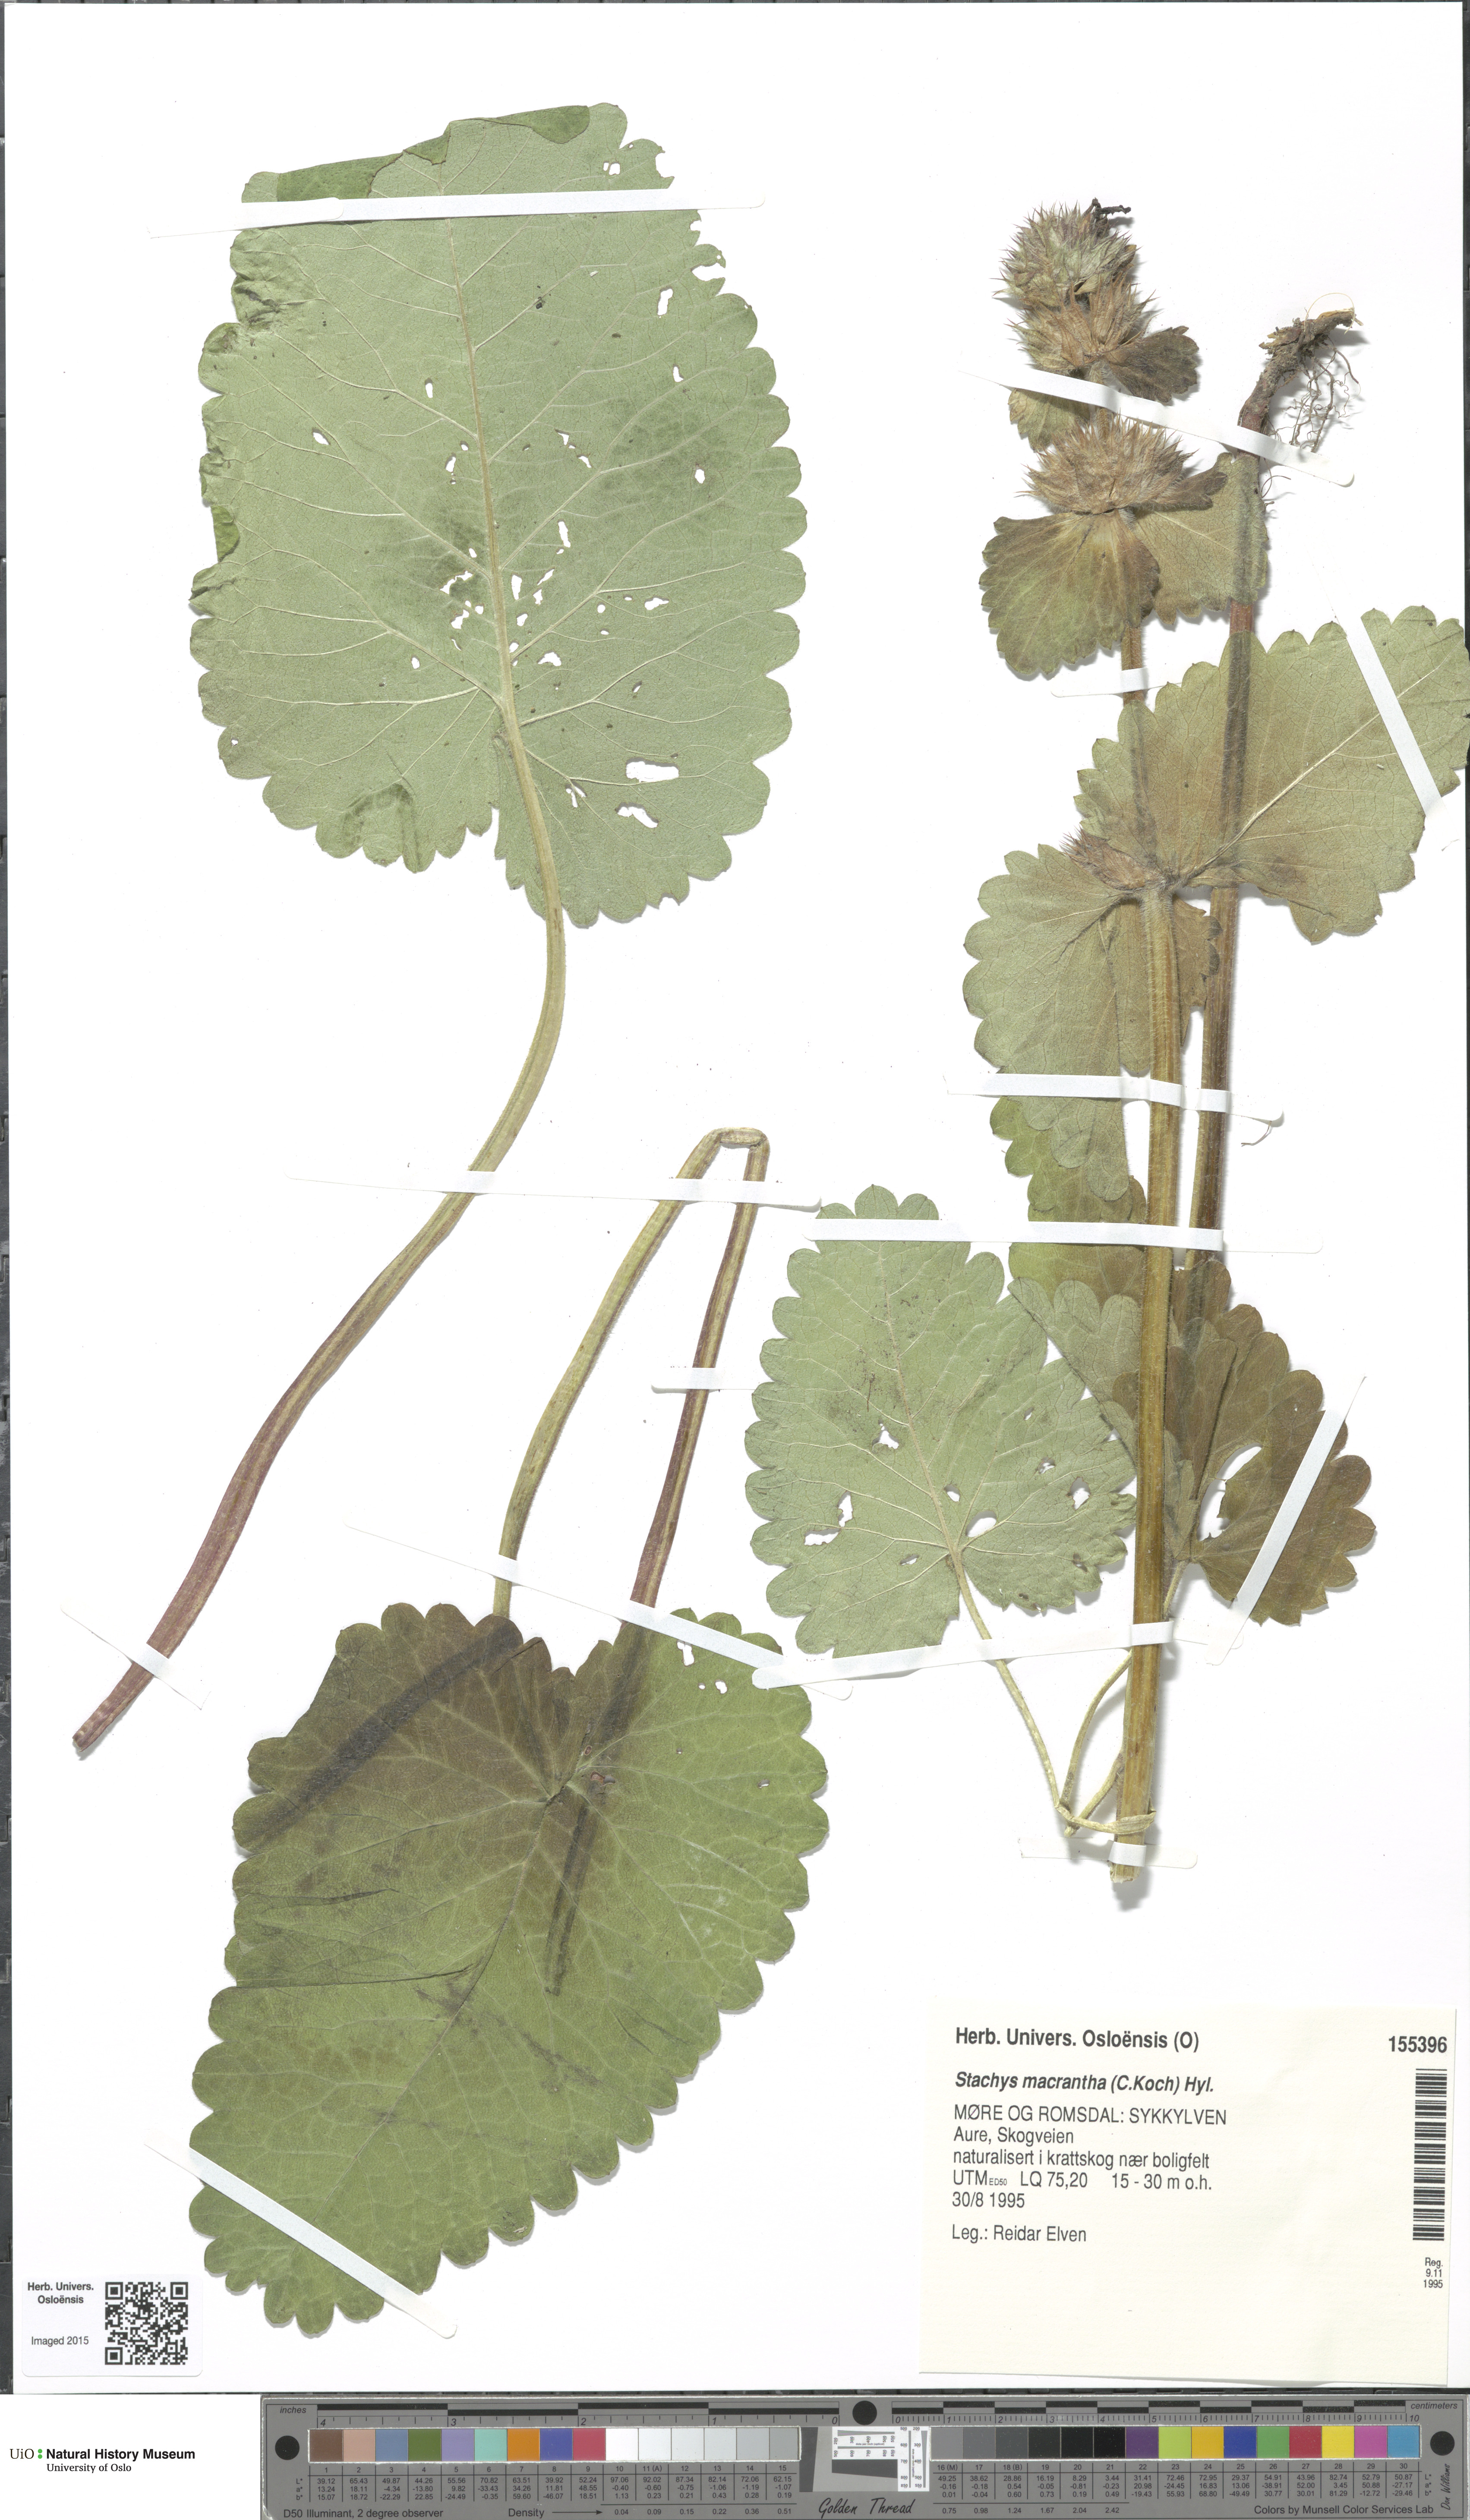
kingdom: Plantae
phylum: Tracheophyta
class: Magnoliopsida
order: Lamiales
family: Lamiaceae
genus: Betonica
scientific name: Betonica macrantha
